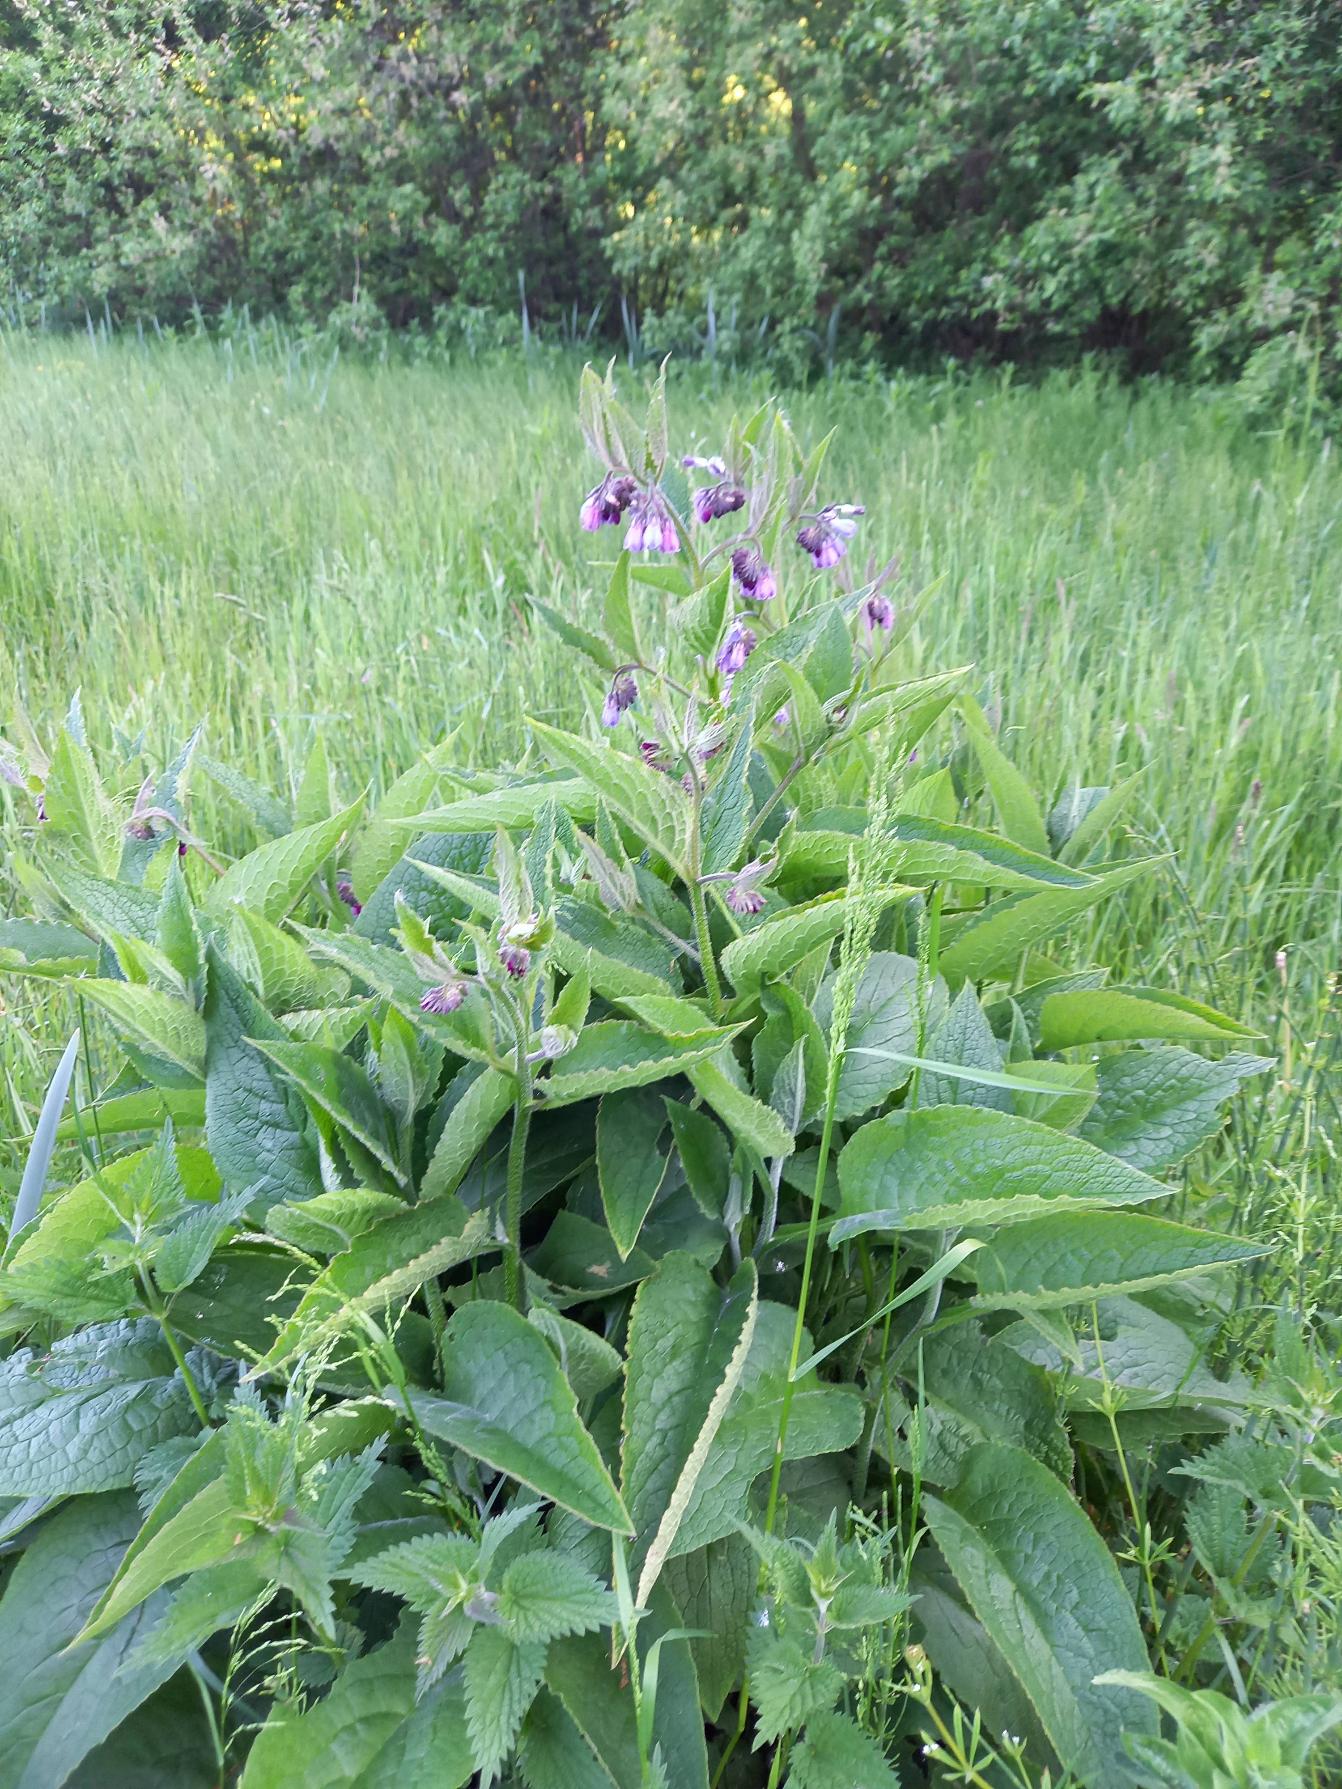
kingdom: Plantae
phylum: Tracheophyta
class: Magnoliopsida
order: Boraginales
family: Boraginaceae
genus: Symphytum
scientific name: Symphytum uplandicum
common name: Foder-kulsukker
